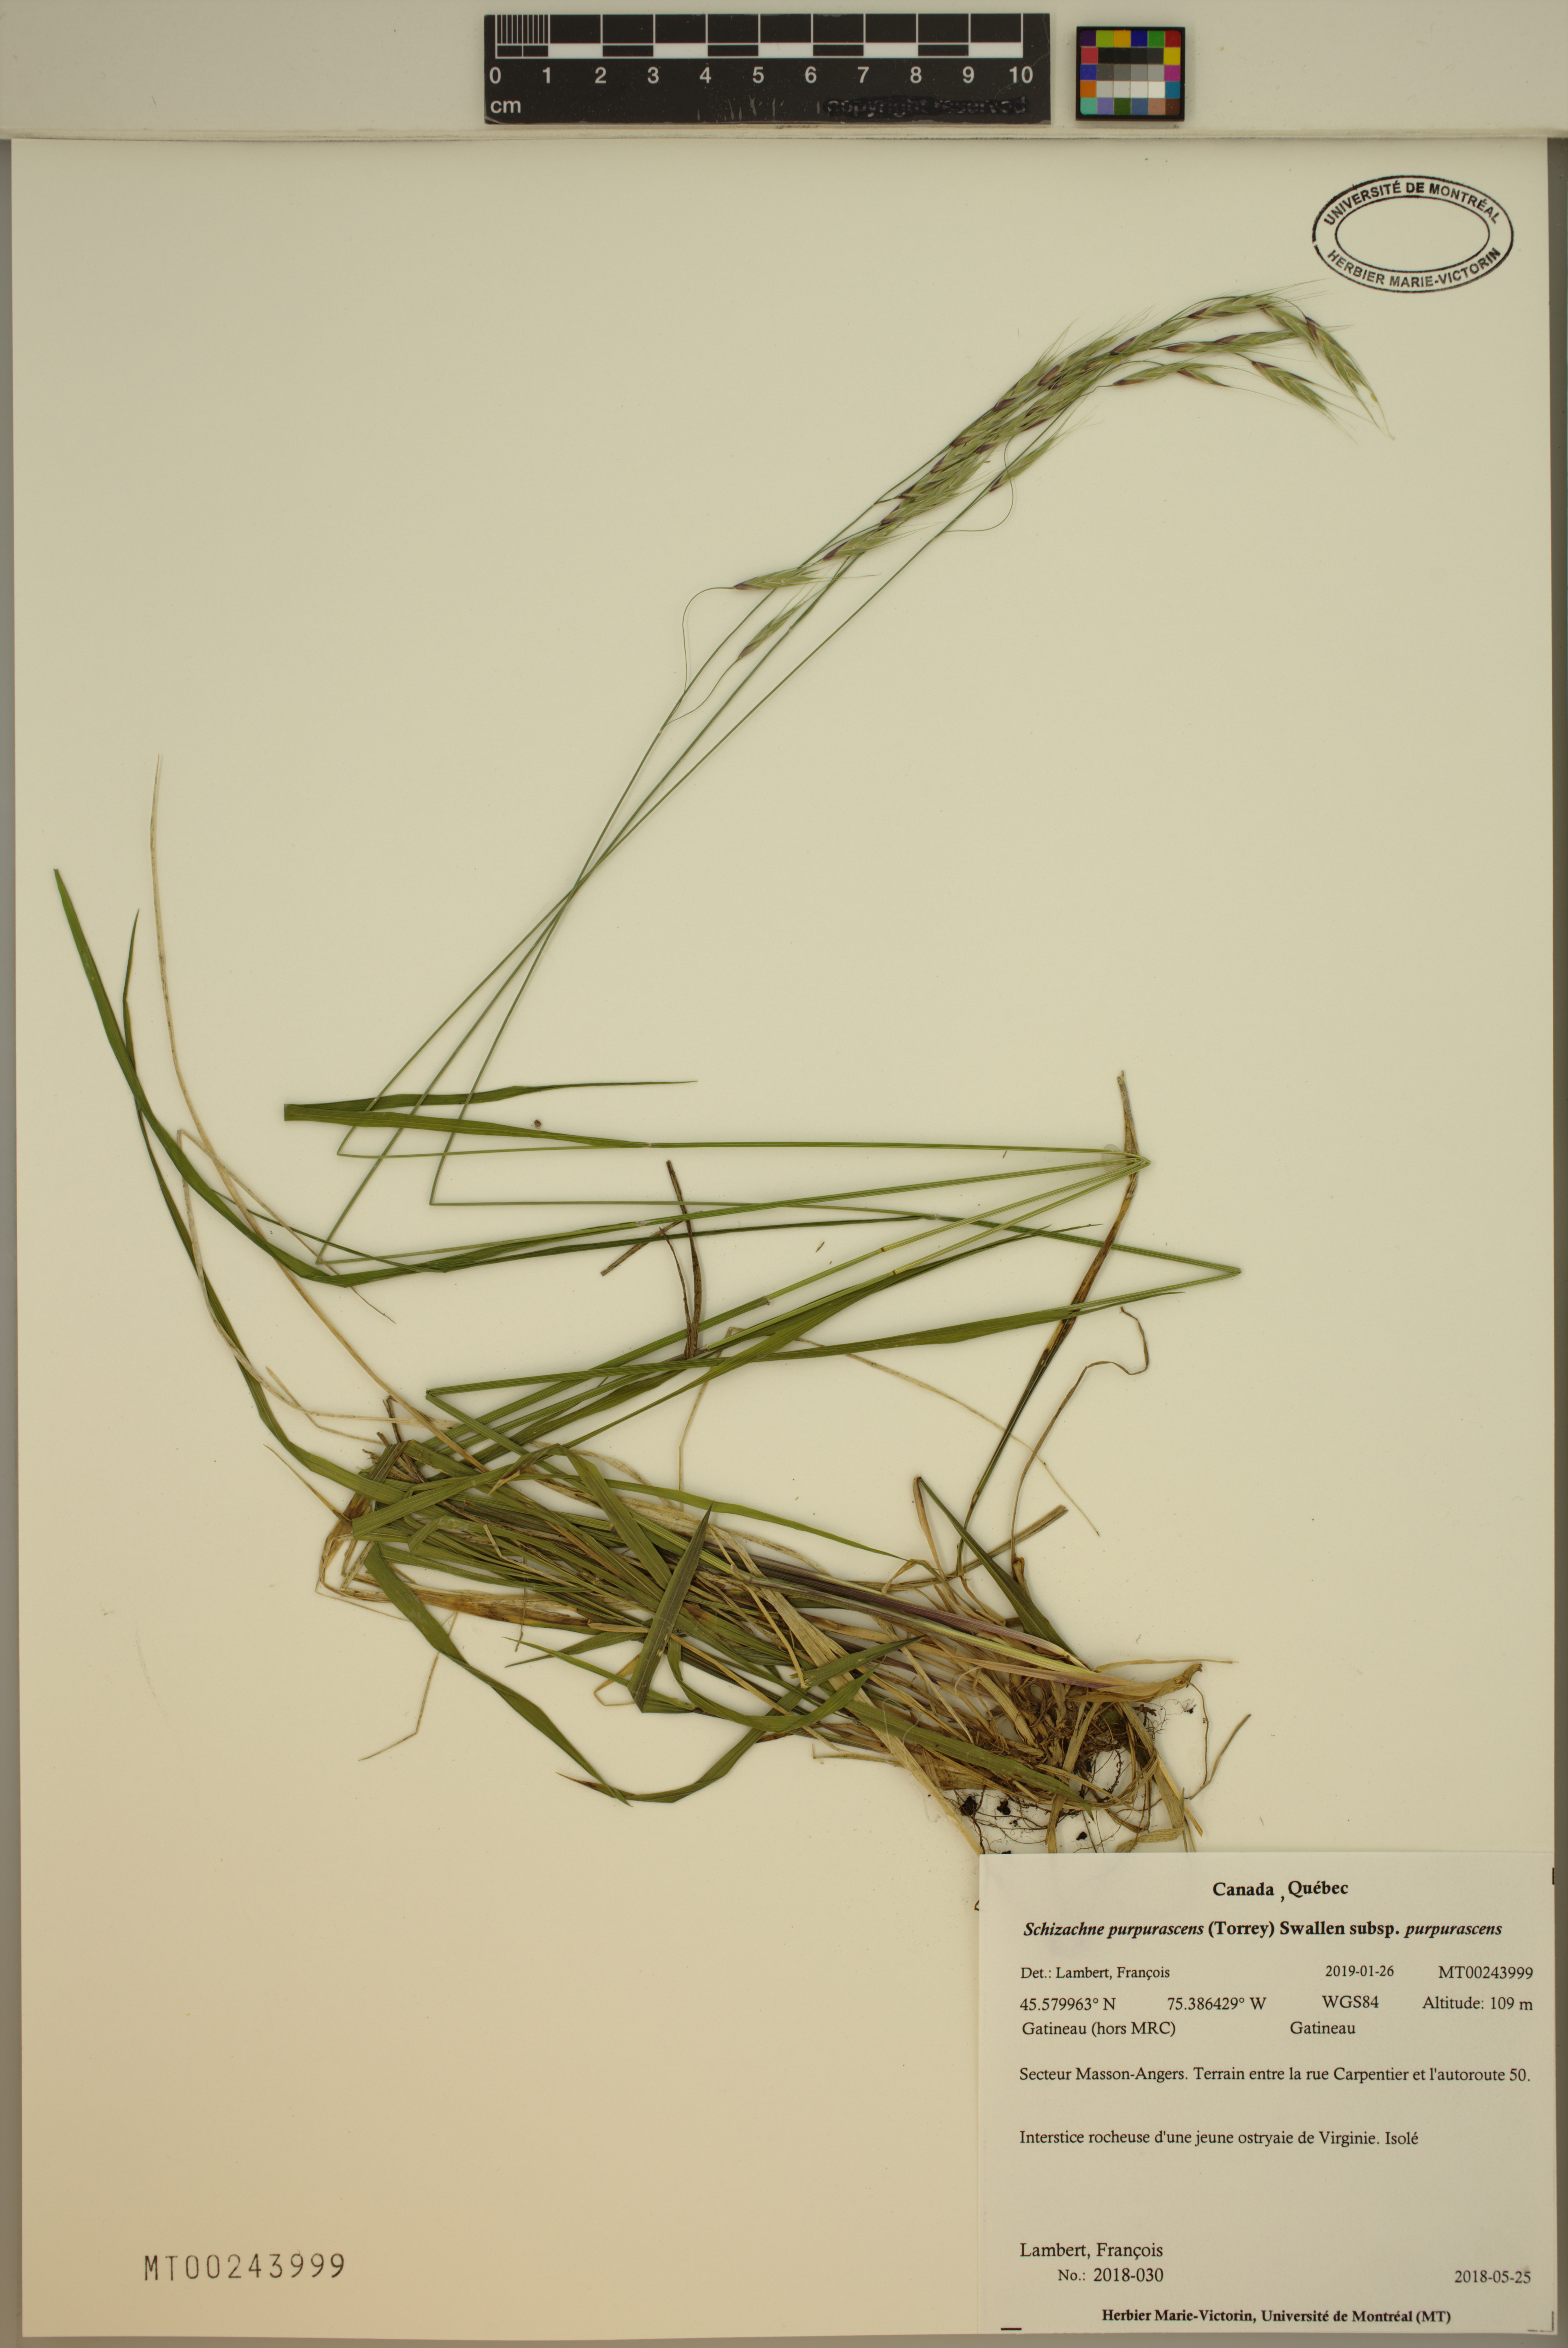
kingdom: Plantae
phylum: Tracheophyta
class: Liliopsida
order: Poales
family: Poaceae
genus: Schizachne
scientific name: Schizachne purpurascens
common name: False melic
